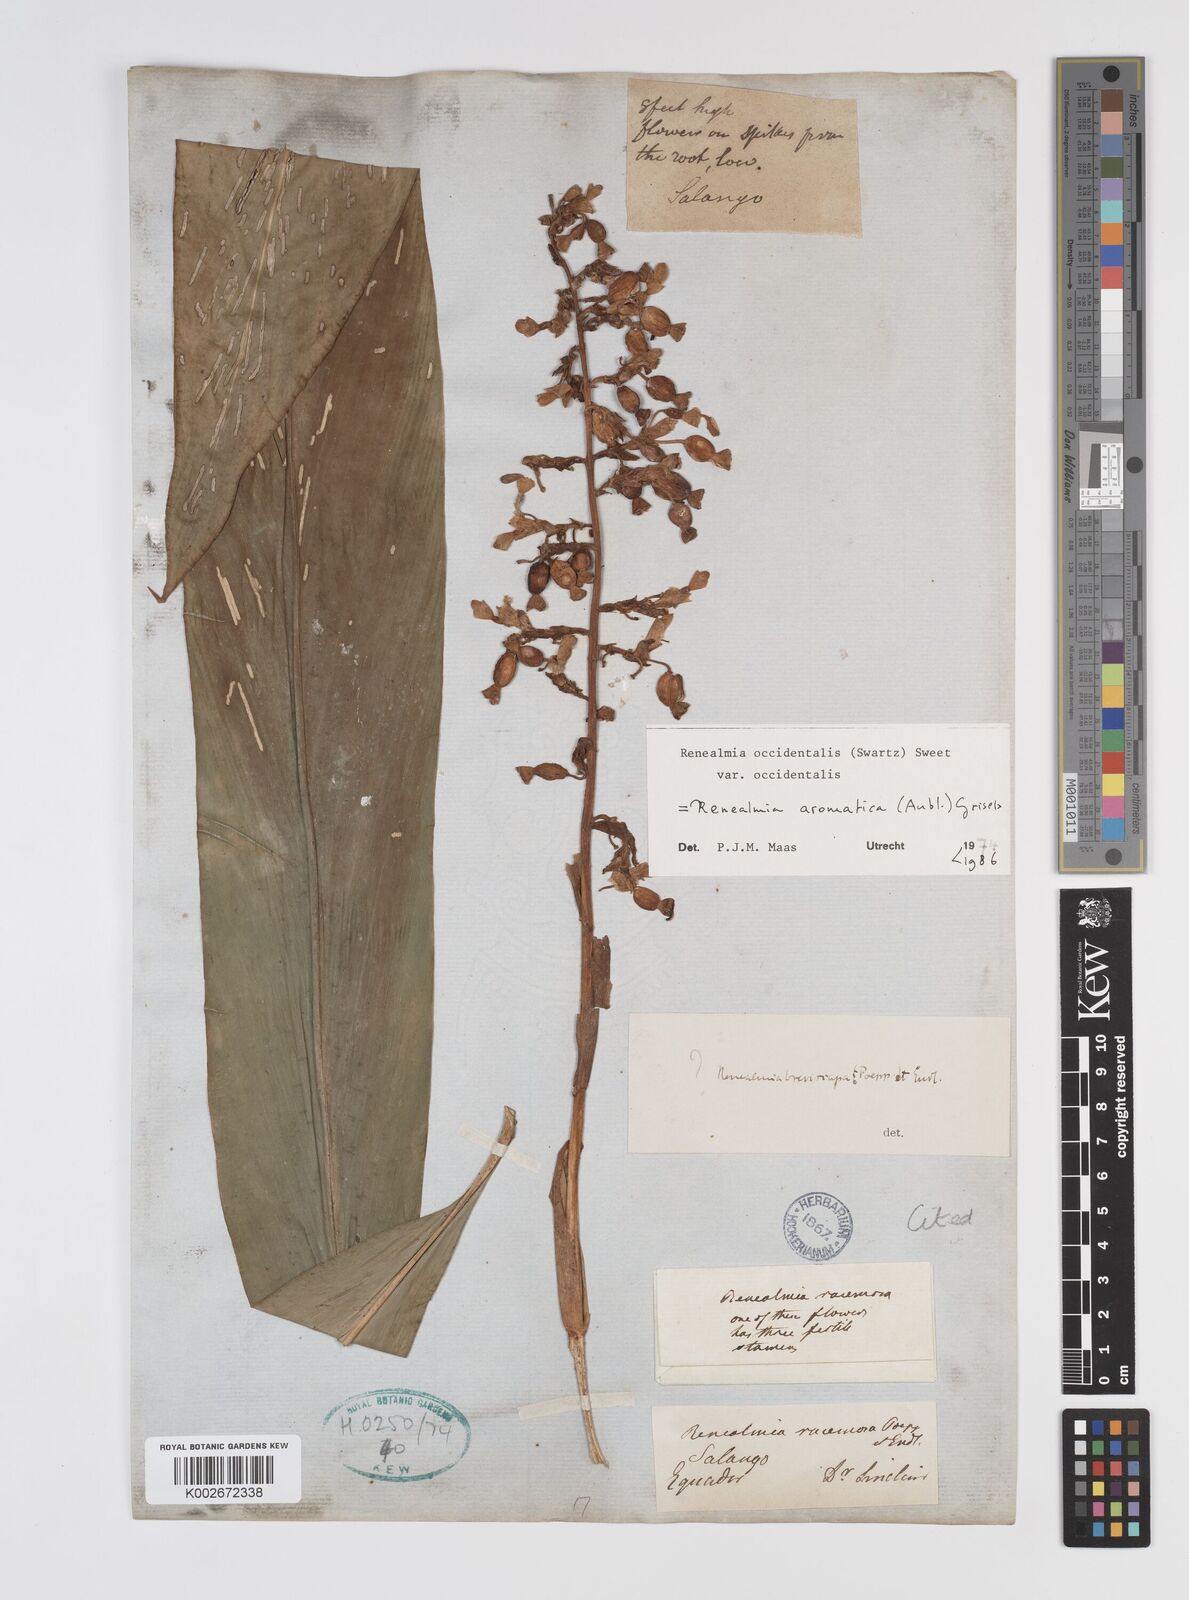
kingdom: Plantae
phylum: Tracheophyta
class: Liliopsida
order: Zingiberales
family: Zingiberaceae
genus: Renealmia
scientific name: Renealmia aromatica
